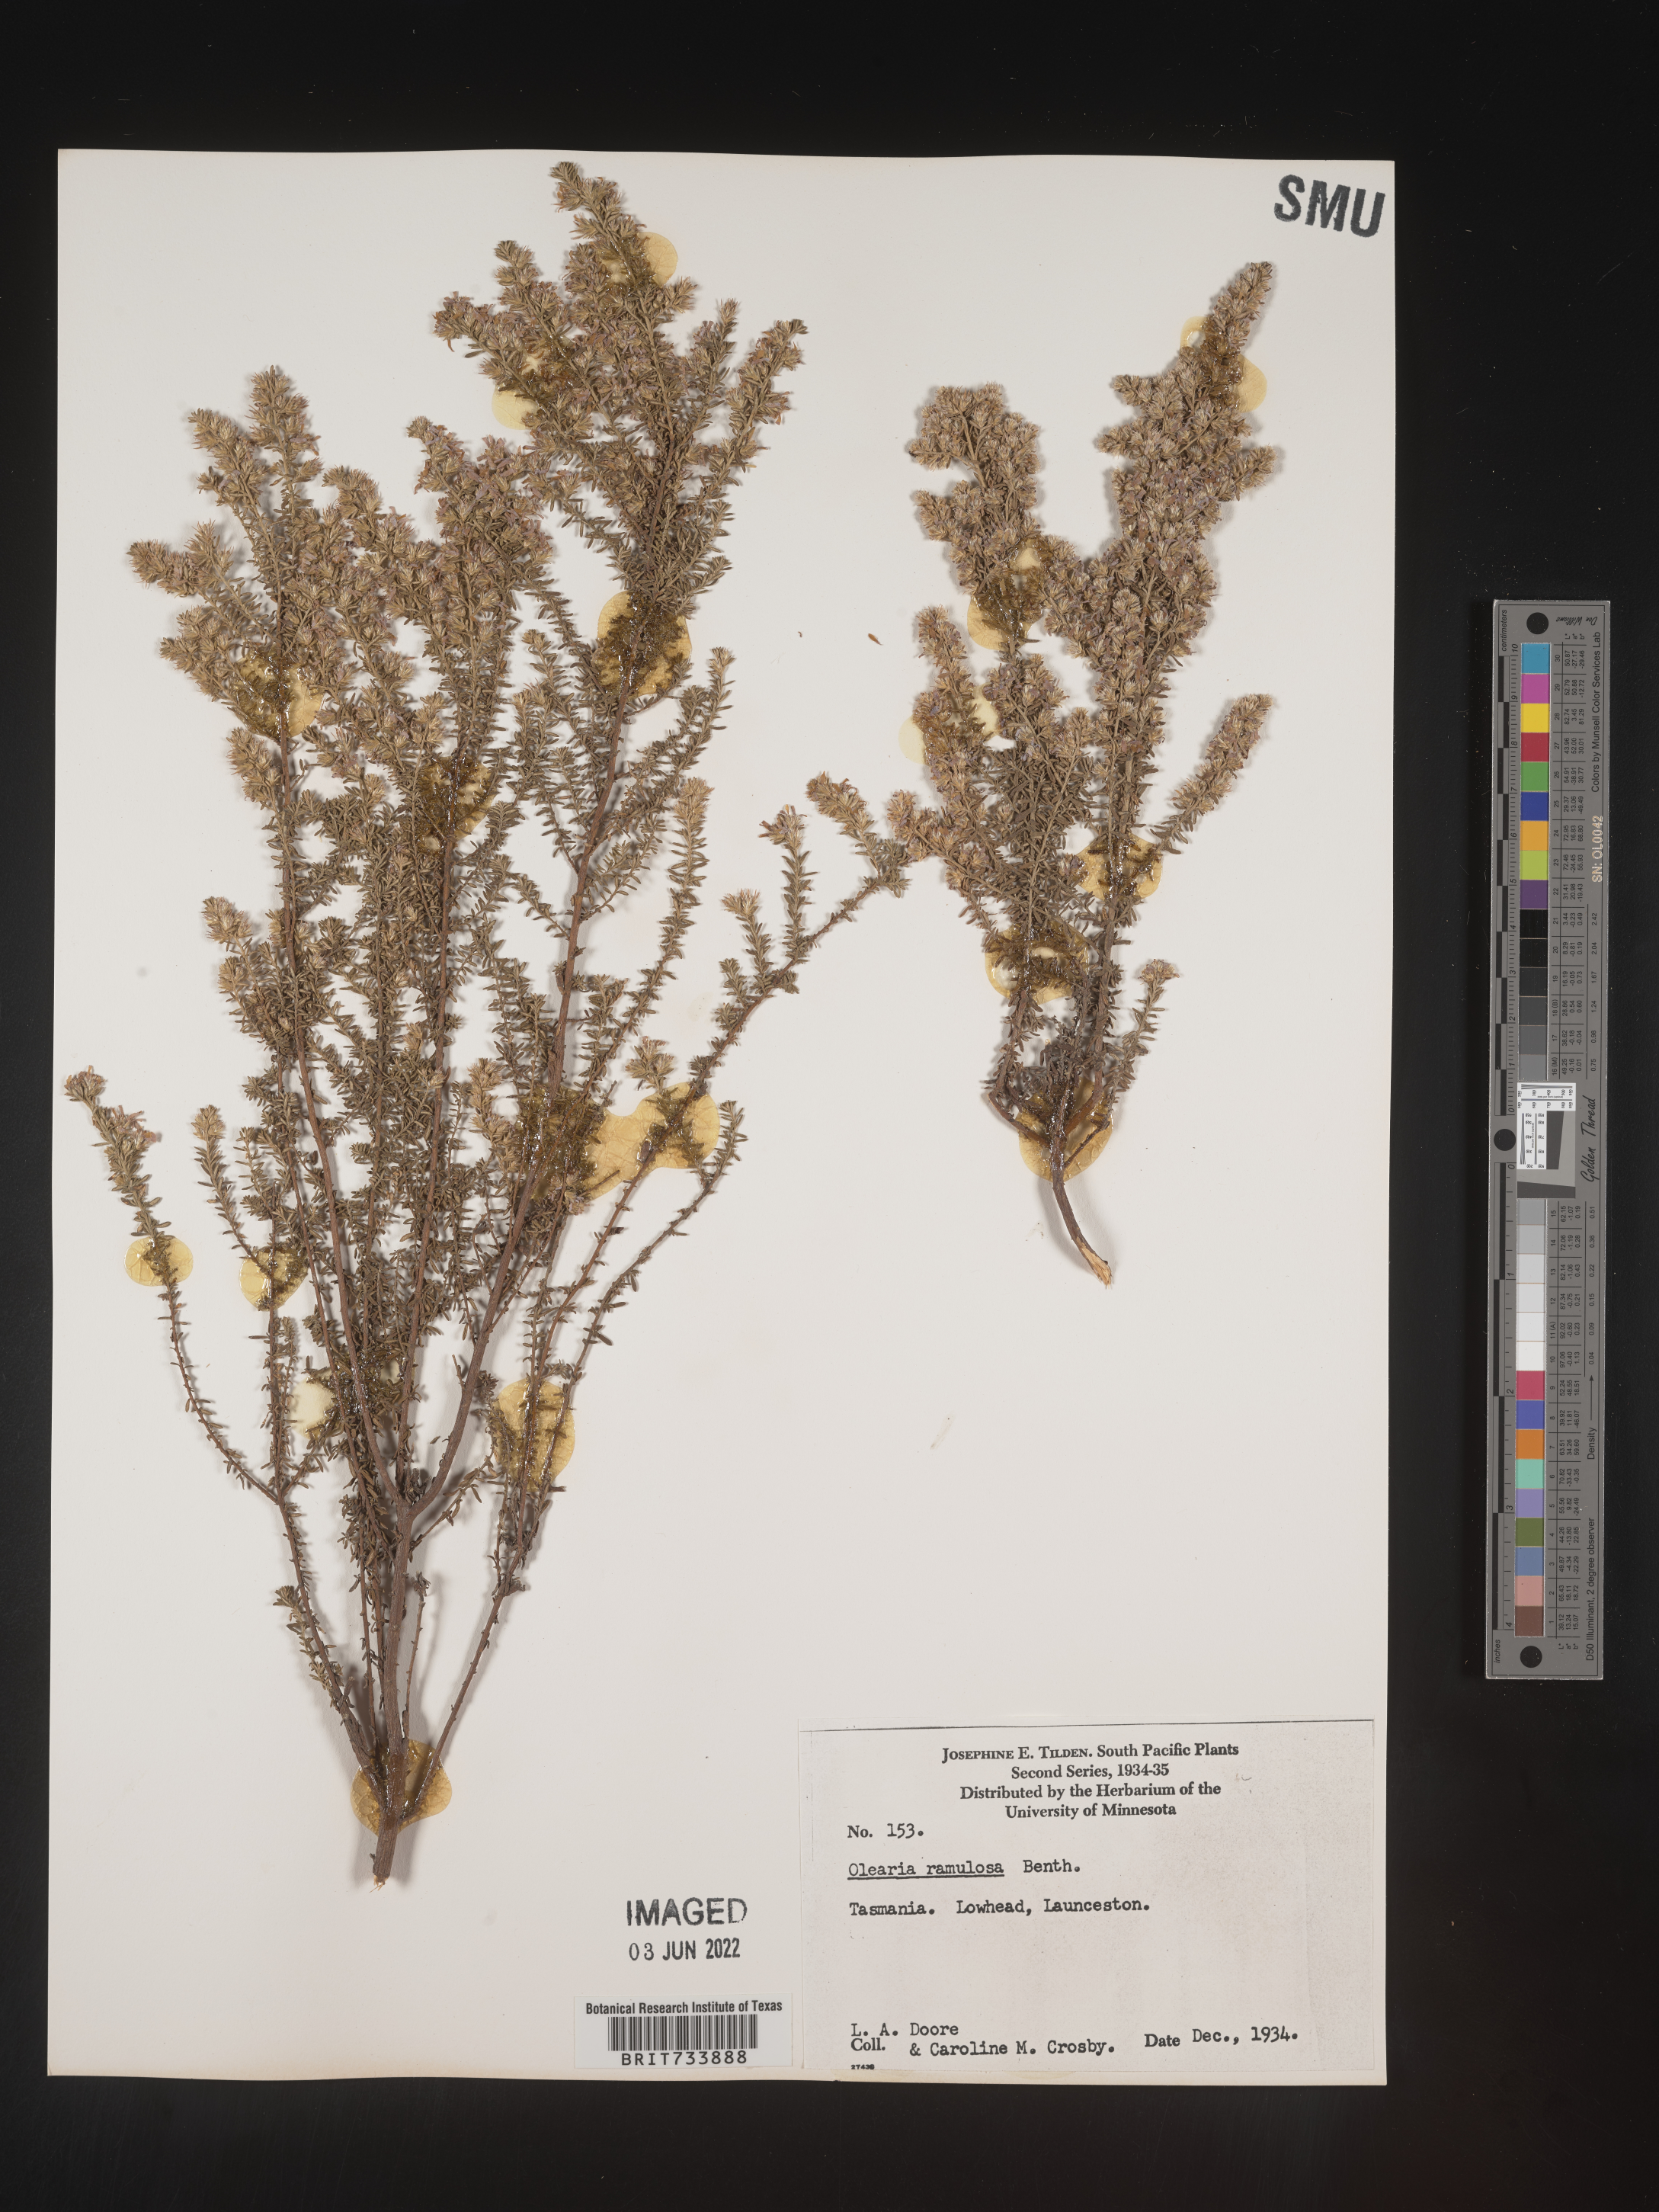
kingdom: Plantae
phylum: Tracheophyta
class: Magnoliopsida
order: Asterales
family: Asteraceae
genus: Olearia
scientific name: Olearia
